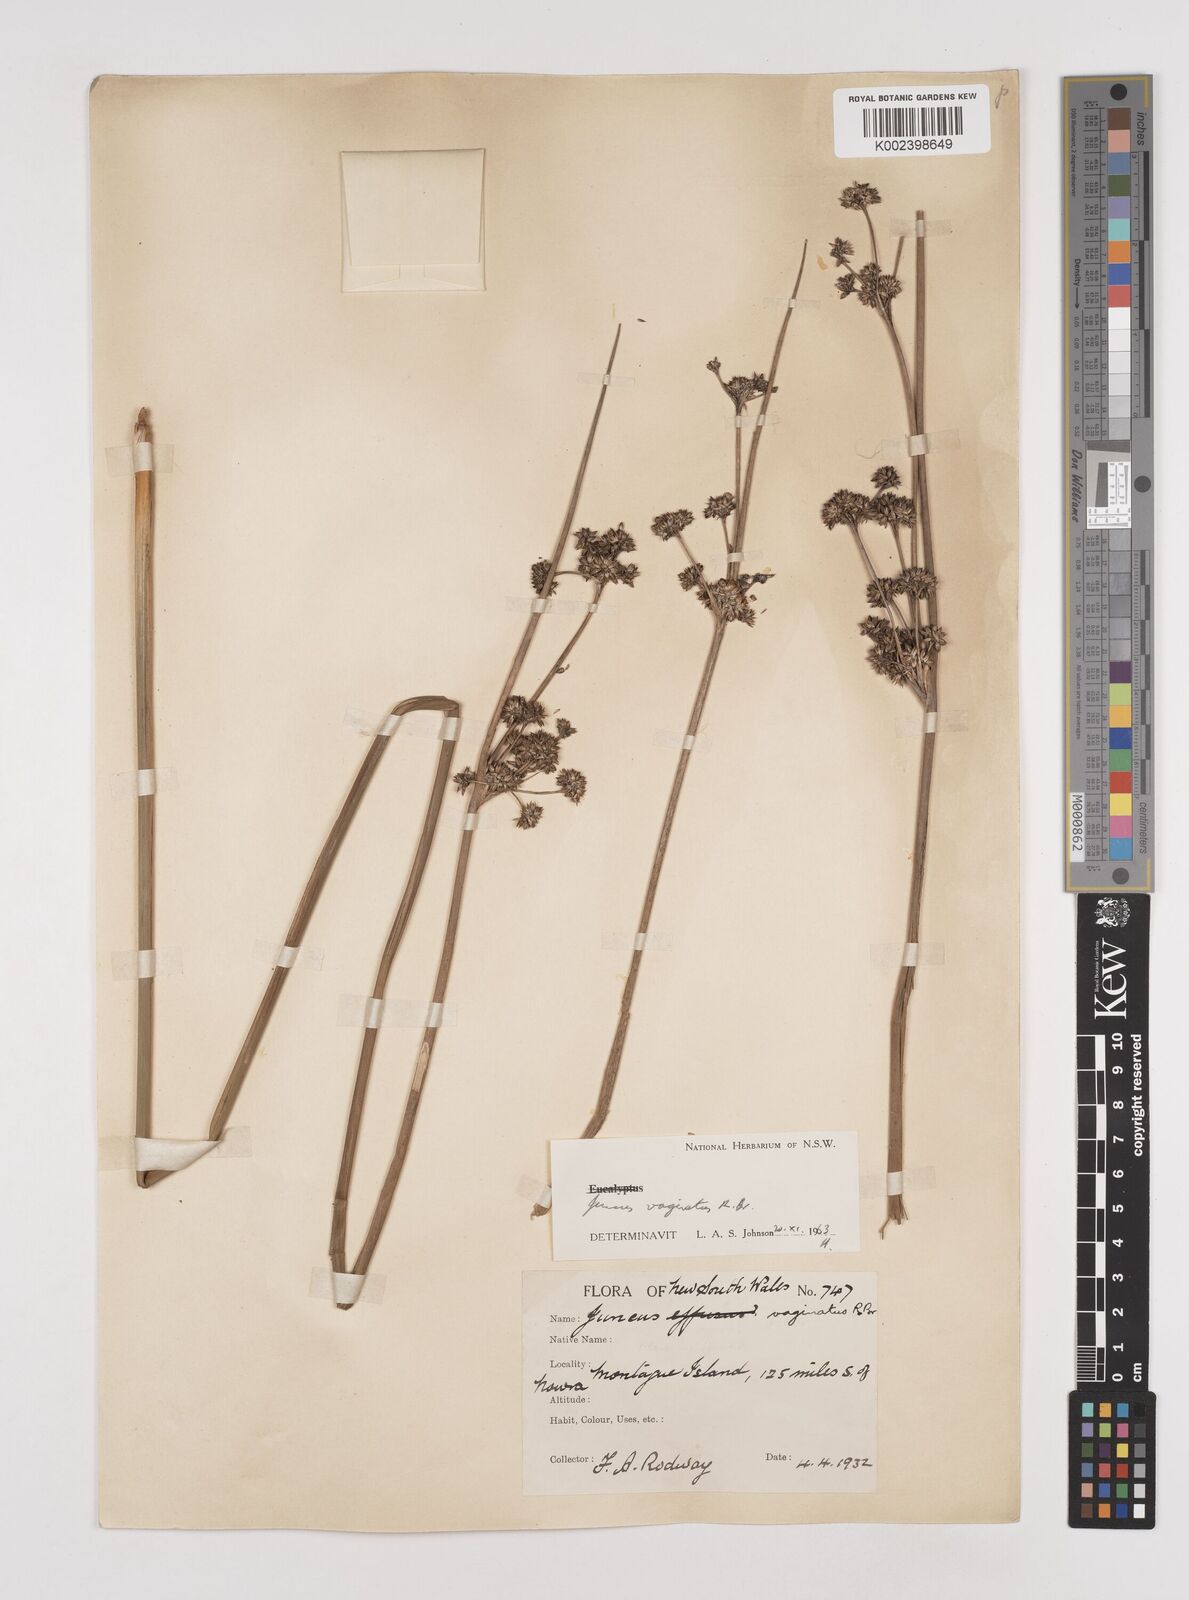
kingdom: Plantae
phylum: Tracheophyta
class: Liliopsida
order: Poales
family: Juncaceae
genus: Juncus
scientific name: Juncus vaginatus
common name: Clustered rush
